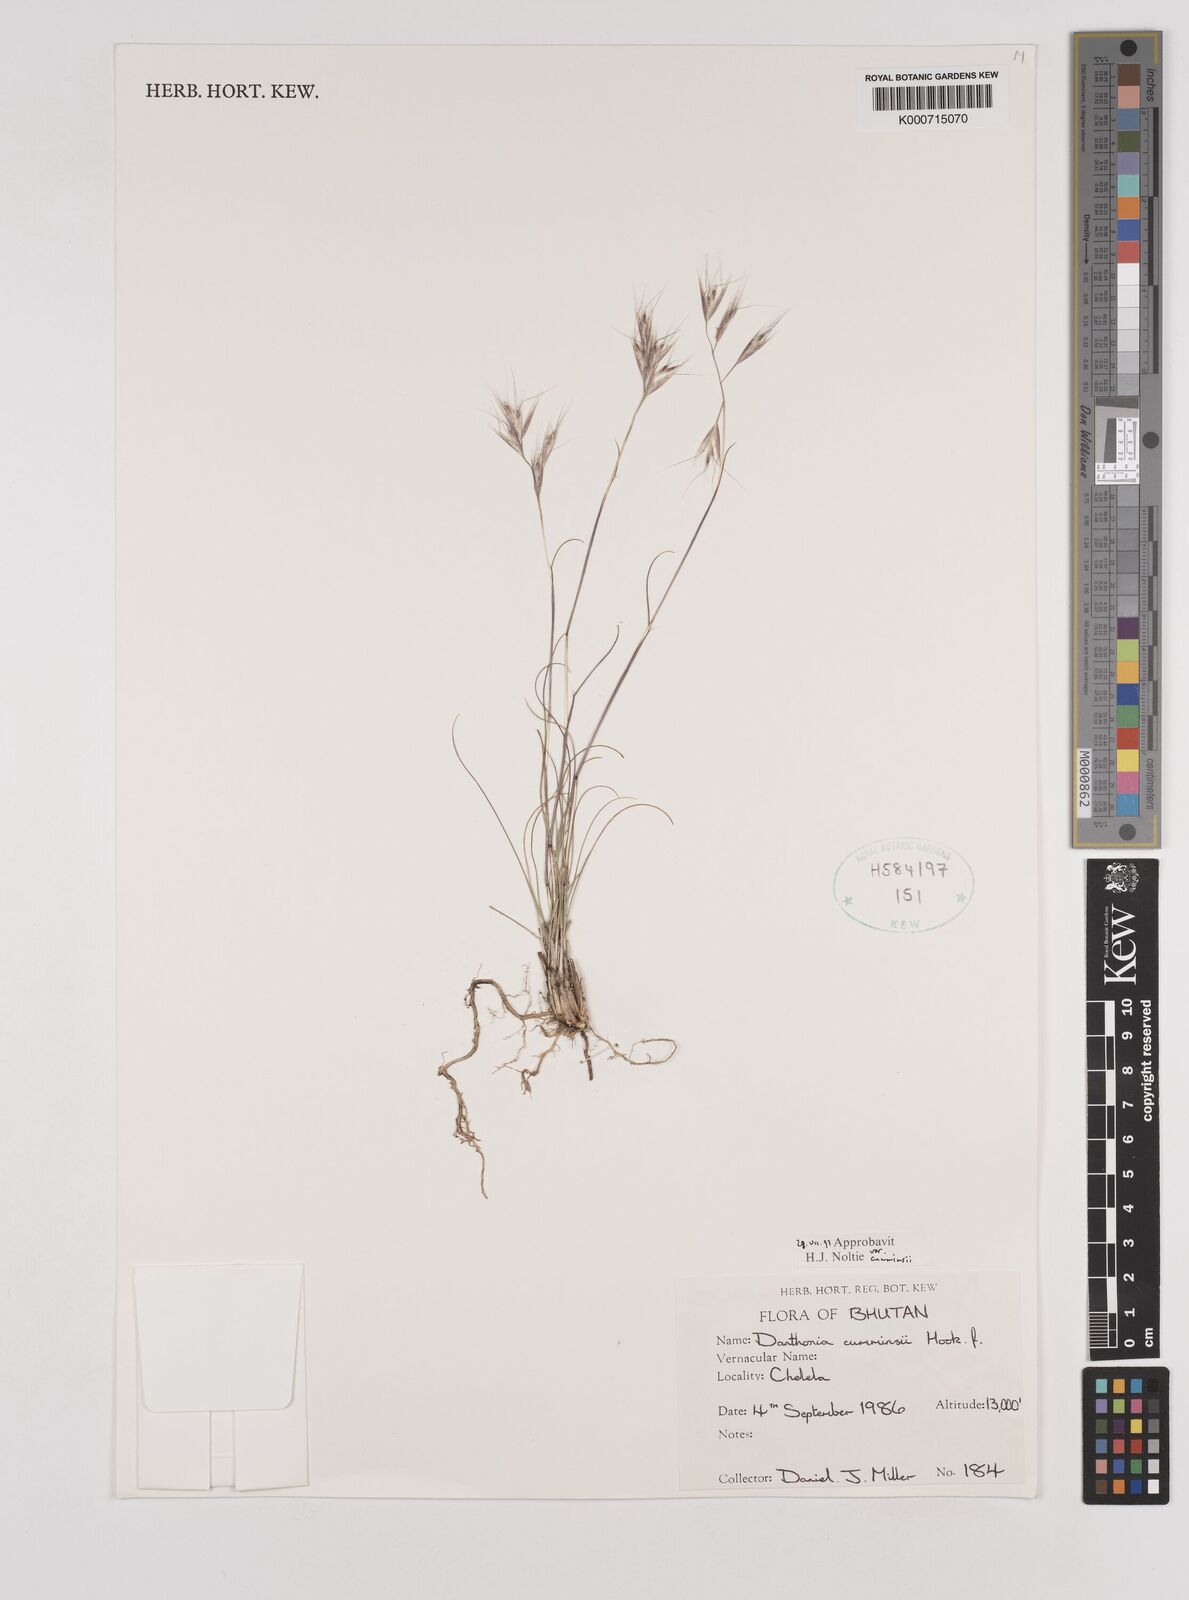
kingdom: Plantae
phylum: Tracheophyta
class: Liliopsida
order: Poales
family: Poaceae
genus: Rytidosperma
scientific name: Rytidosperma
